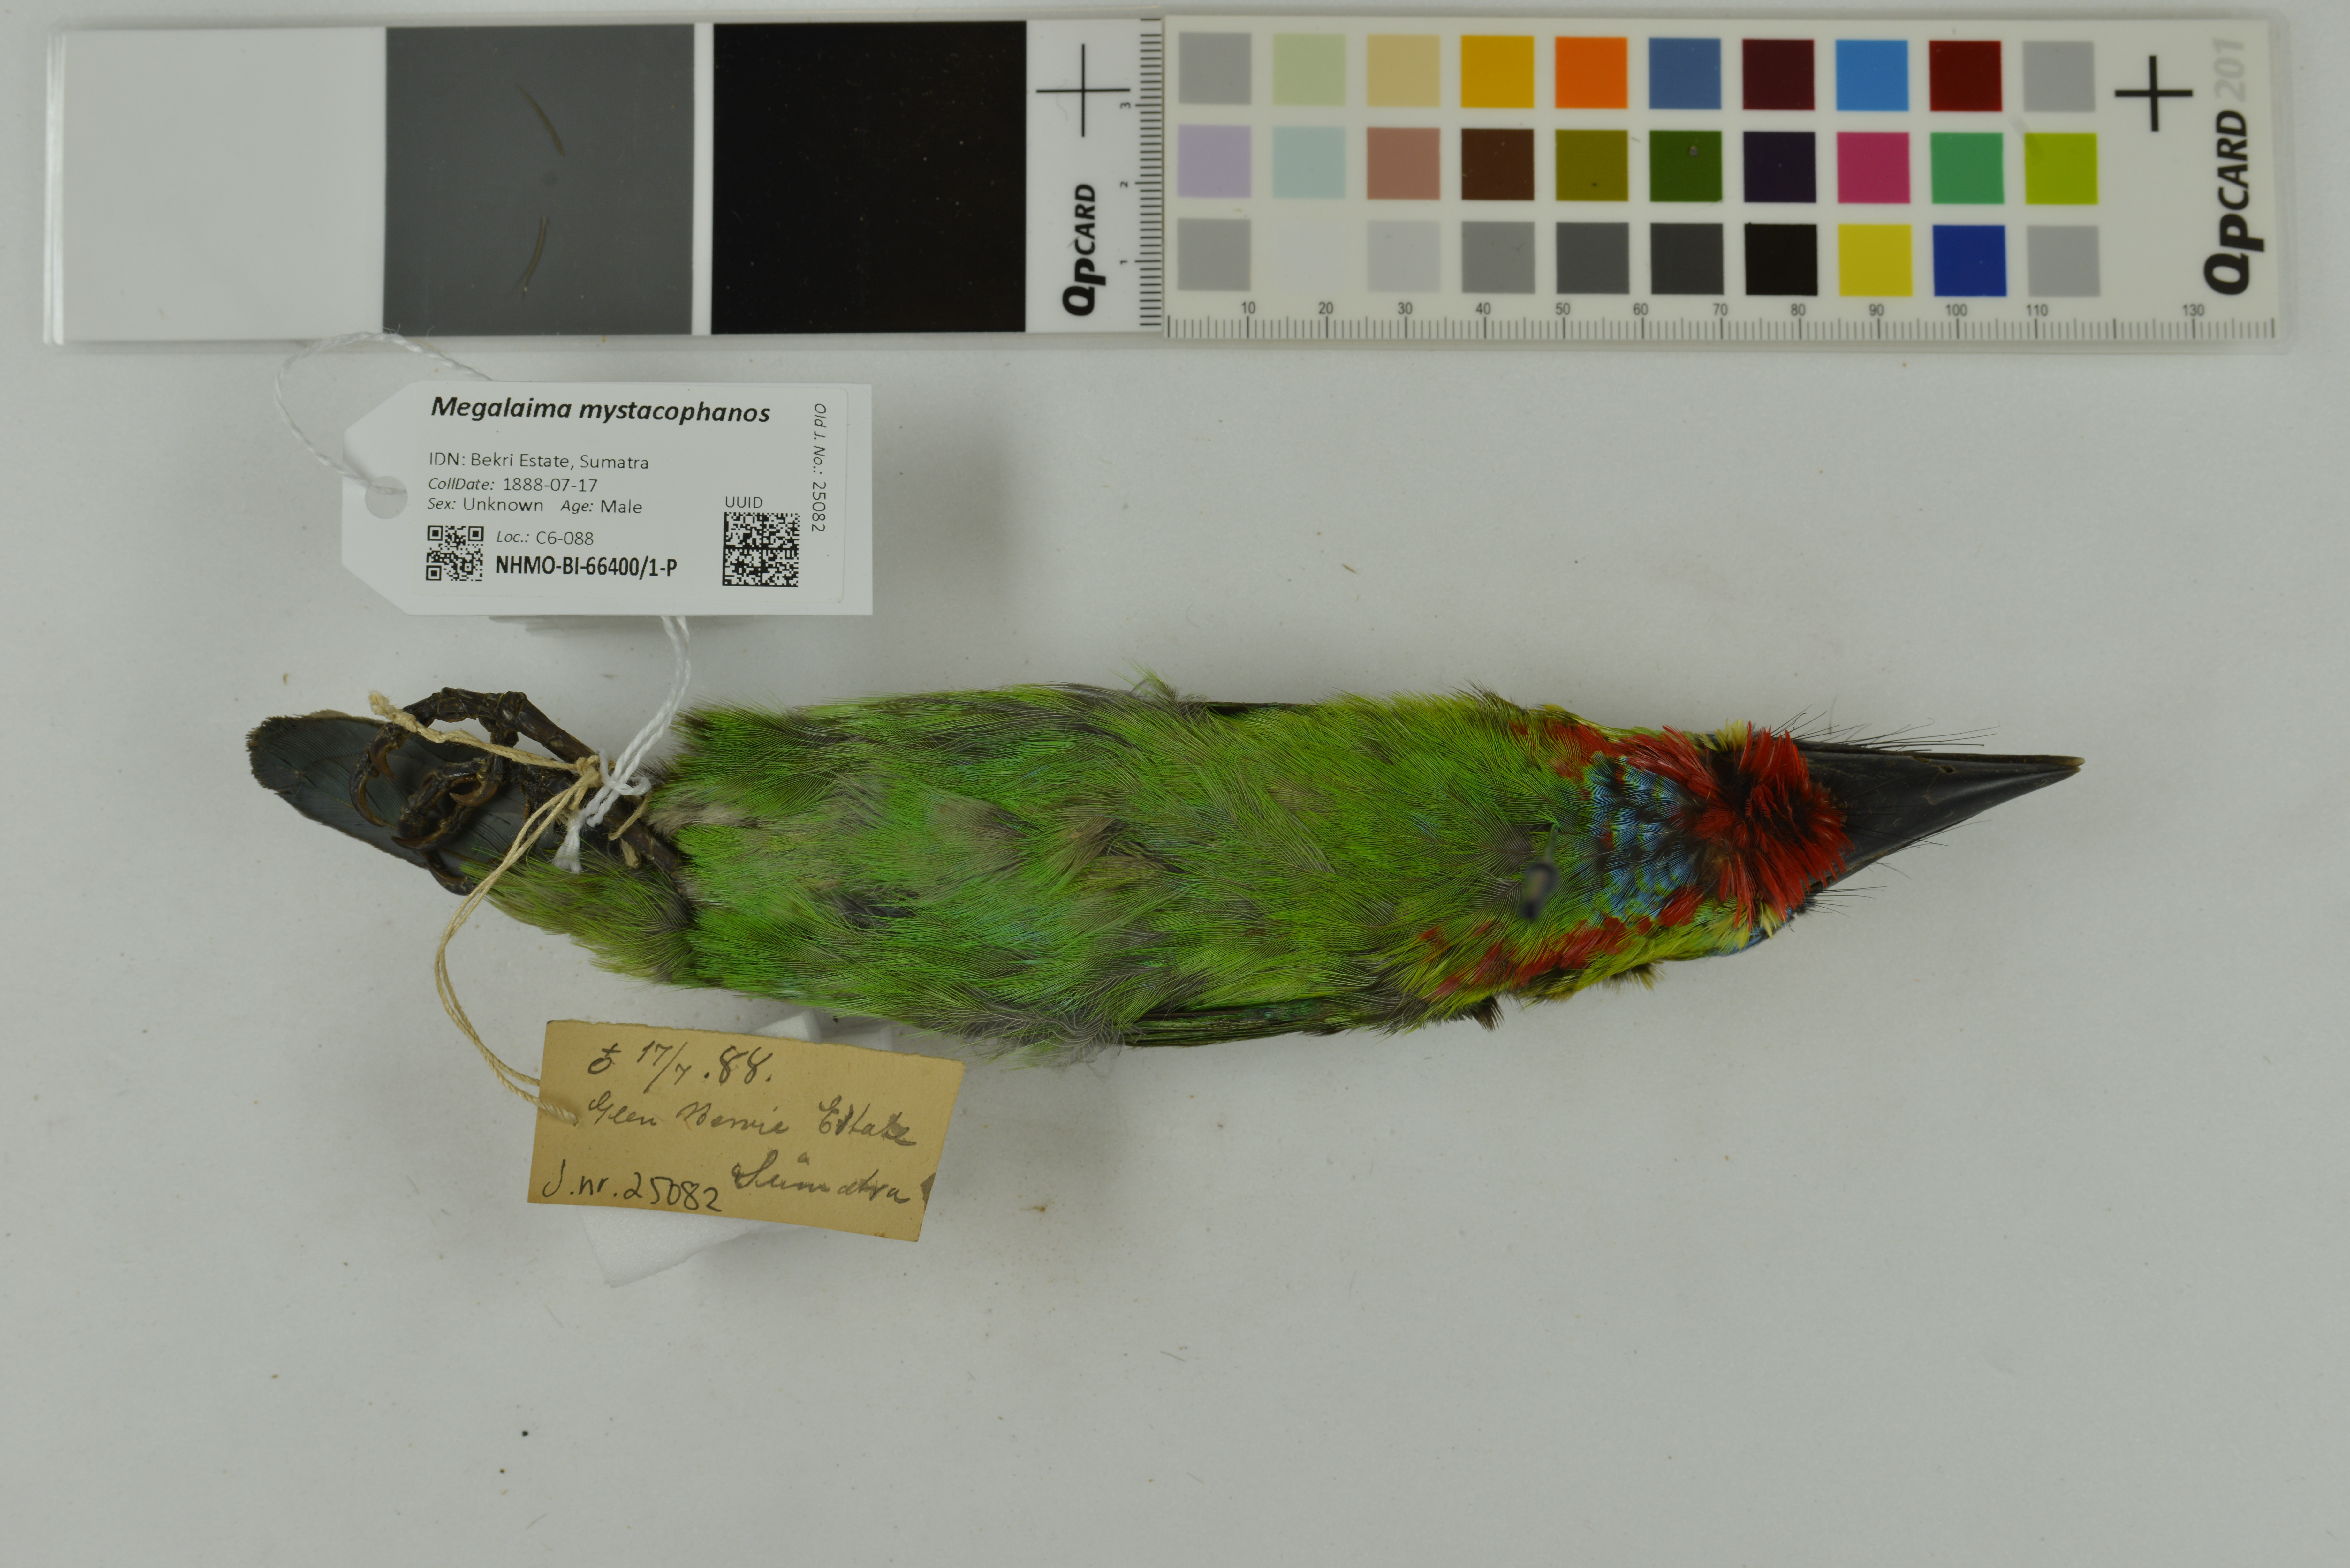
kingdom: Animalia
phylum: Chordata
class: Aves
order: Piciformes
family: Megalaimidae
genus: Psilopogon
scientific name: Psilopogon mystacophanos
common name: Red-throated barbet
